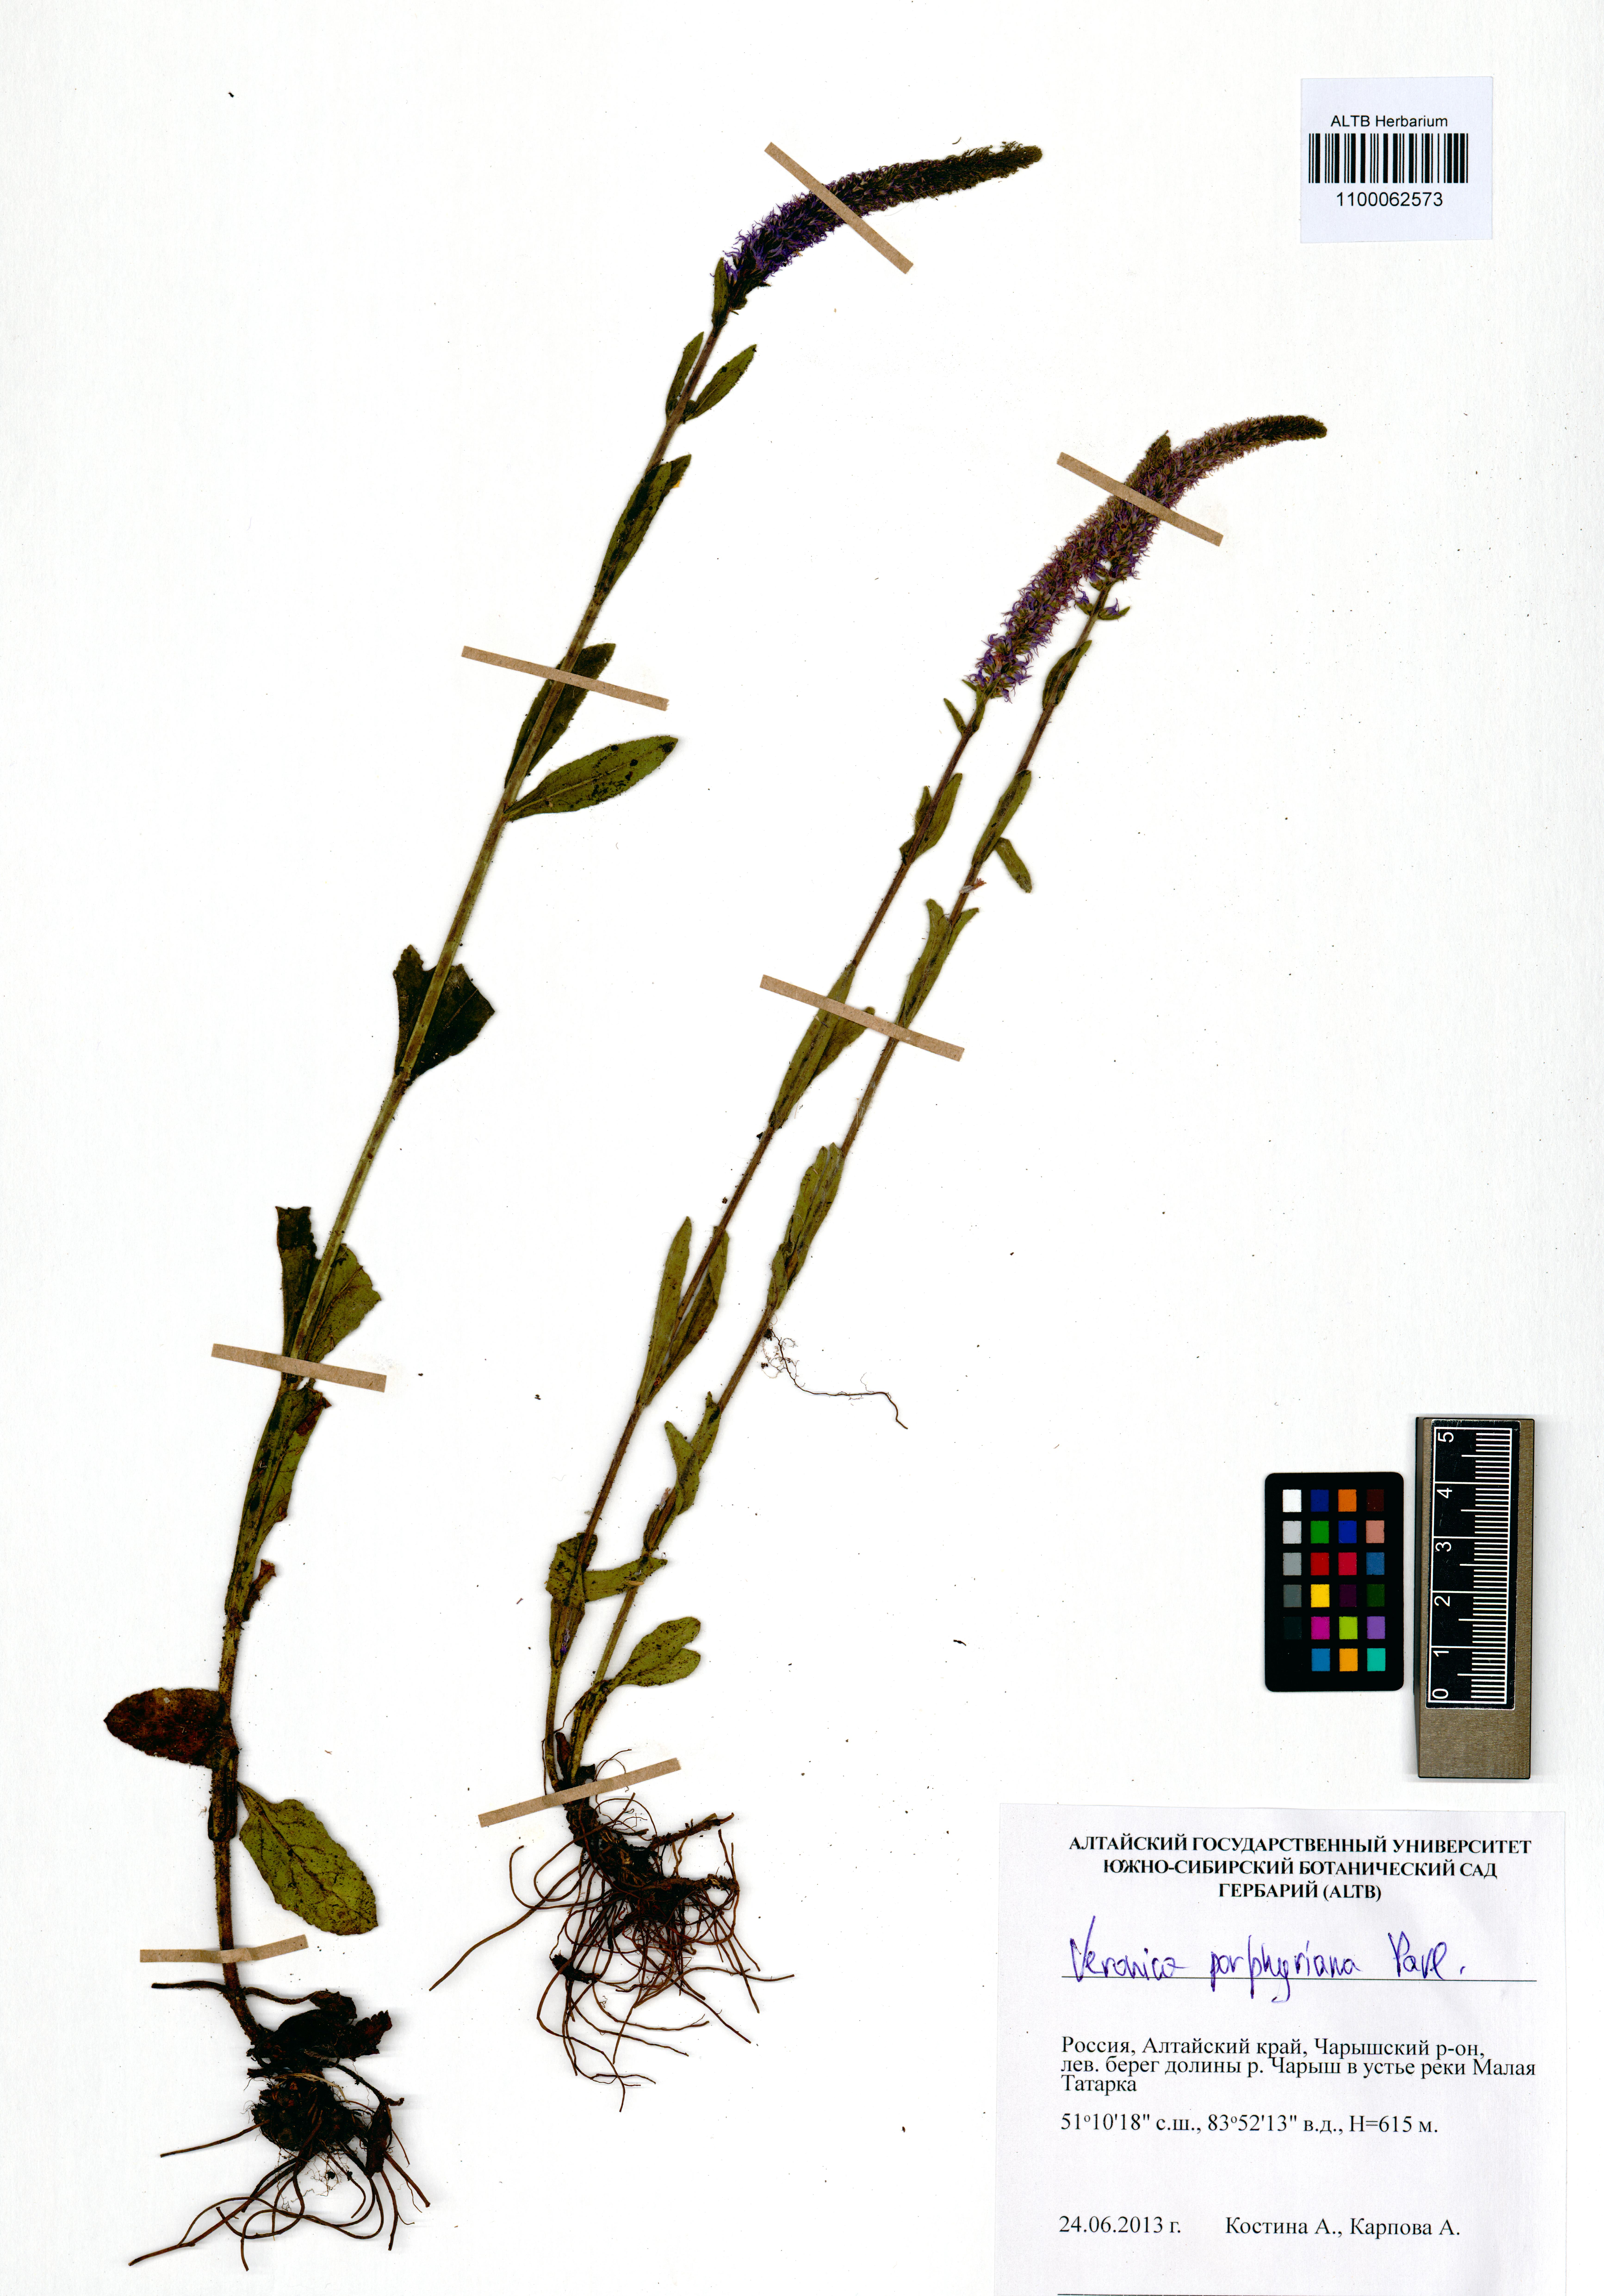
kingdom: Plantae
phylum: Tracheophyta
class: Magnoliopsida
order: Lamiales
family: Plantaginaceae
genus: Veronica
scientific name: Veronica porphyriana
